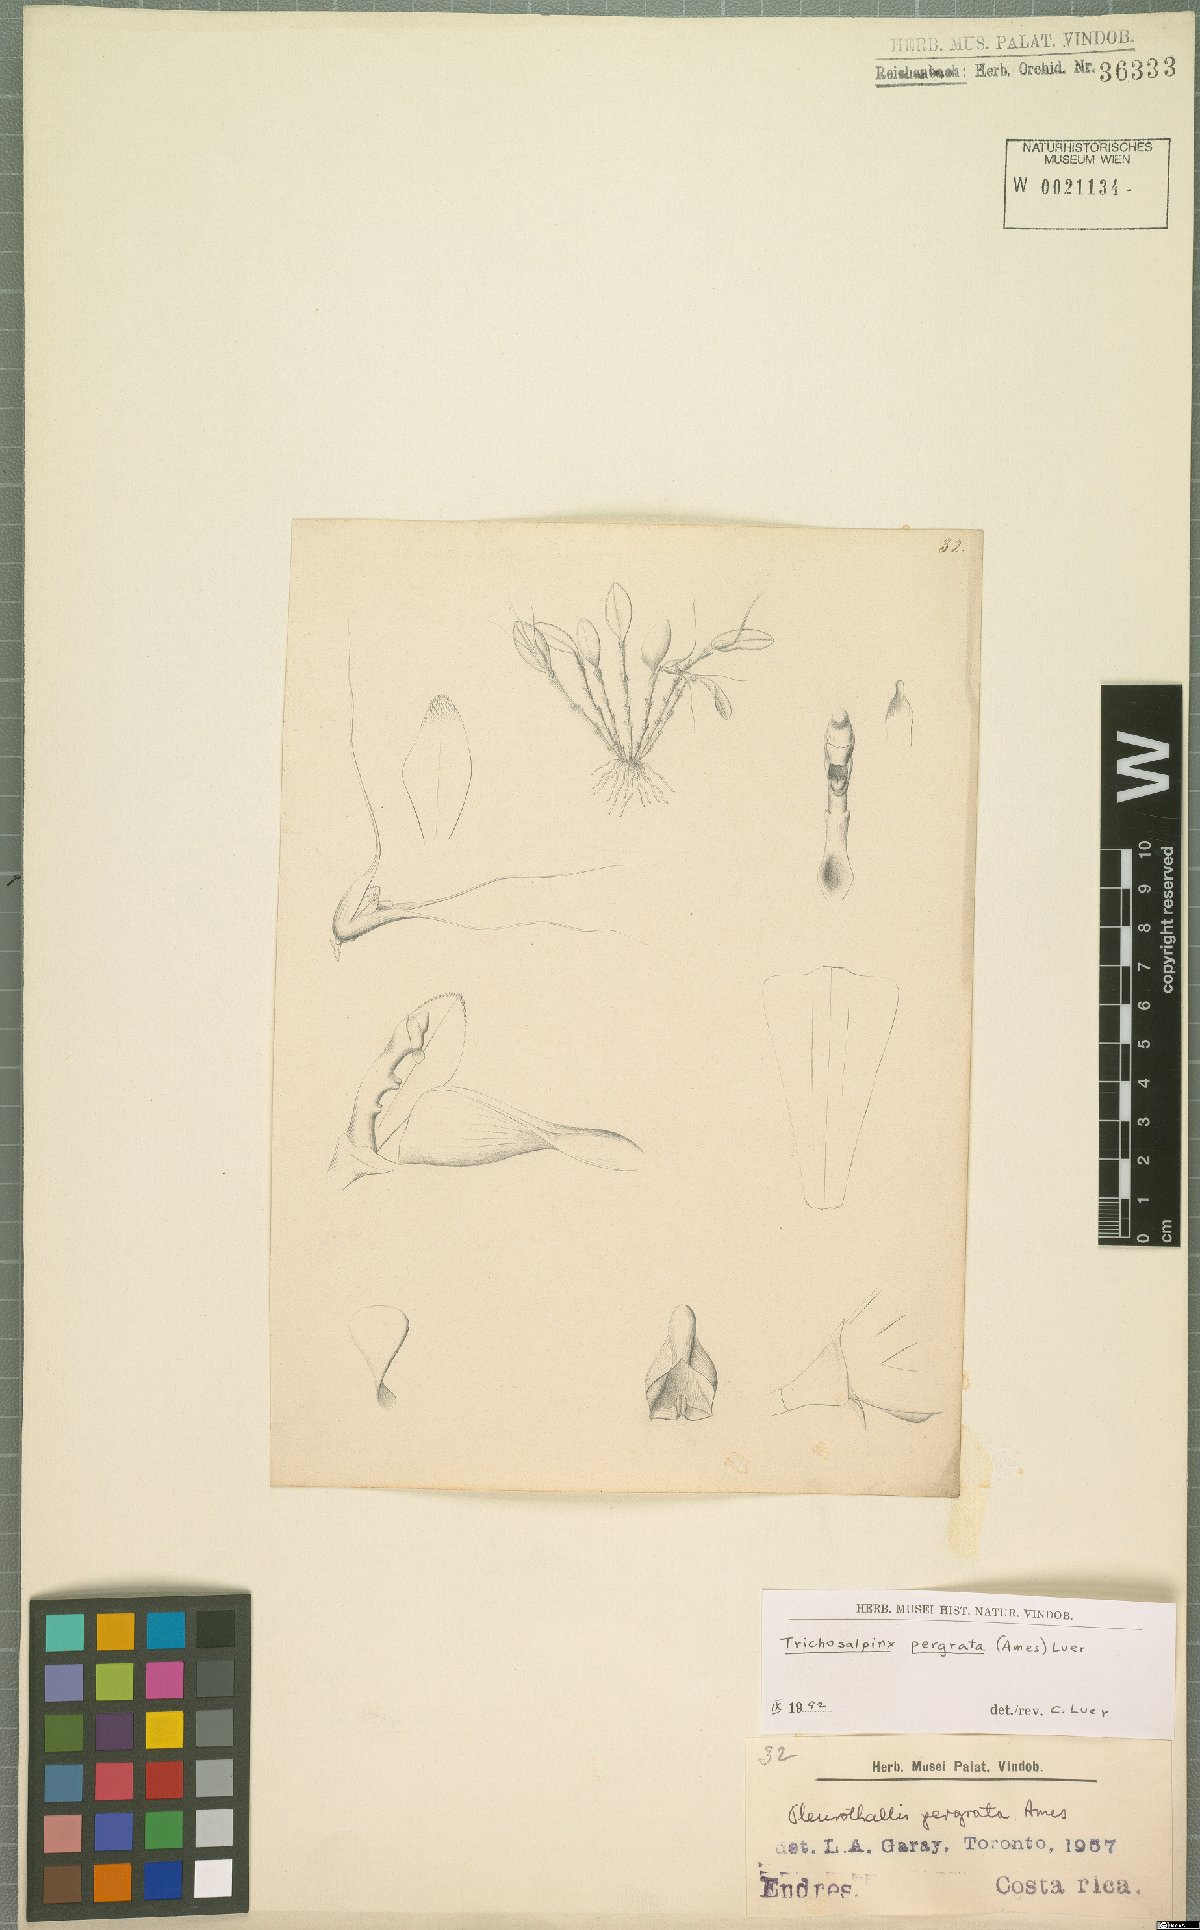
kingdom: Plantae
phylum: Tracheophyta
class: Liliopsida
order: Asparagales
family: Orchidaceae
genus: Stellamaris
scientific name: Stellamaris pergrata
